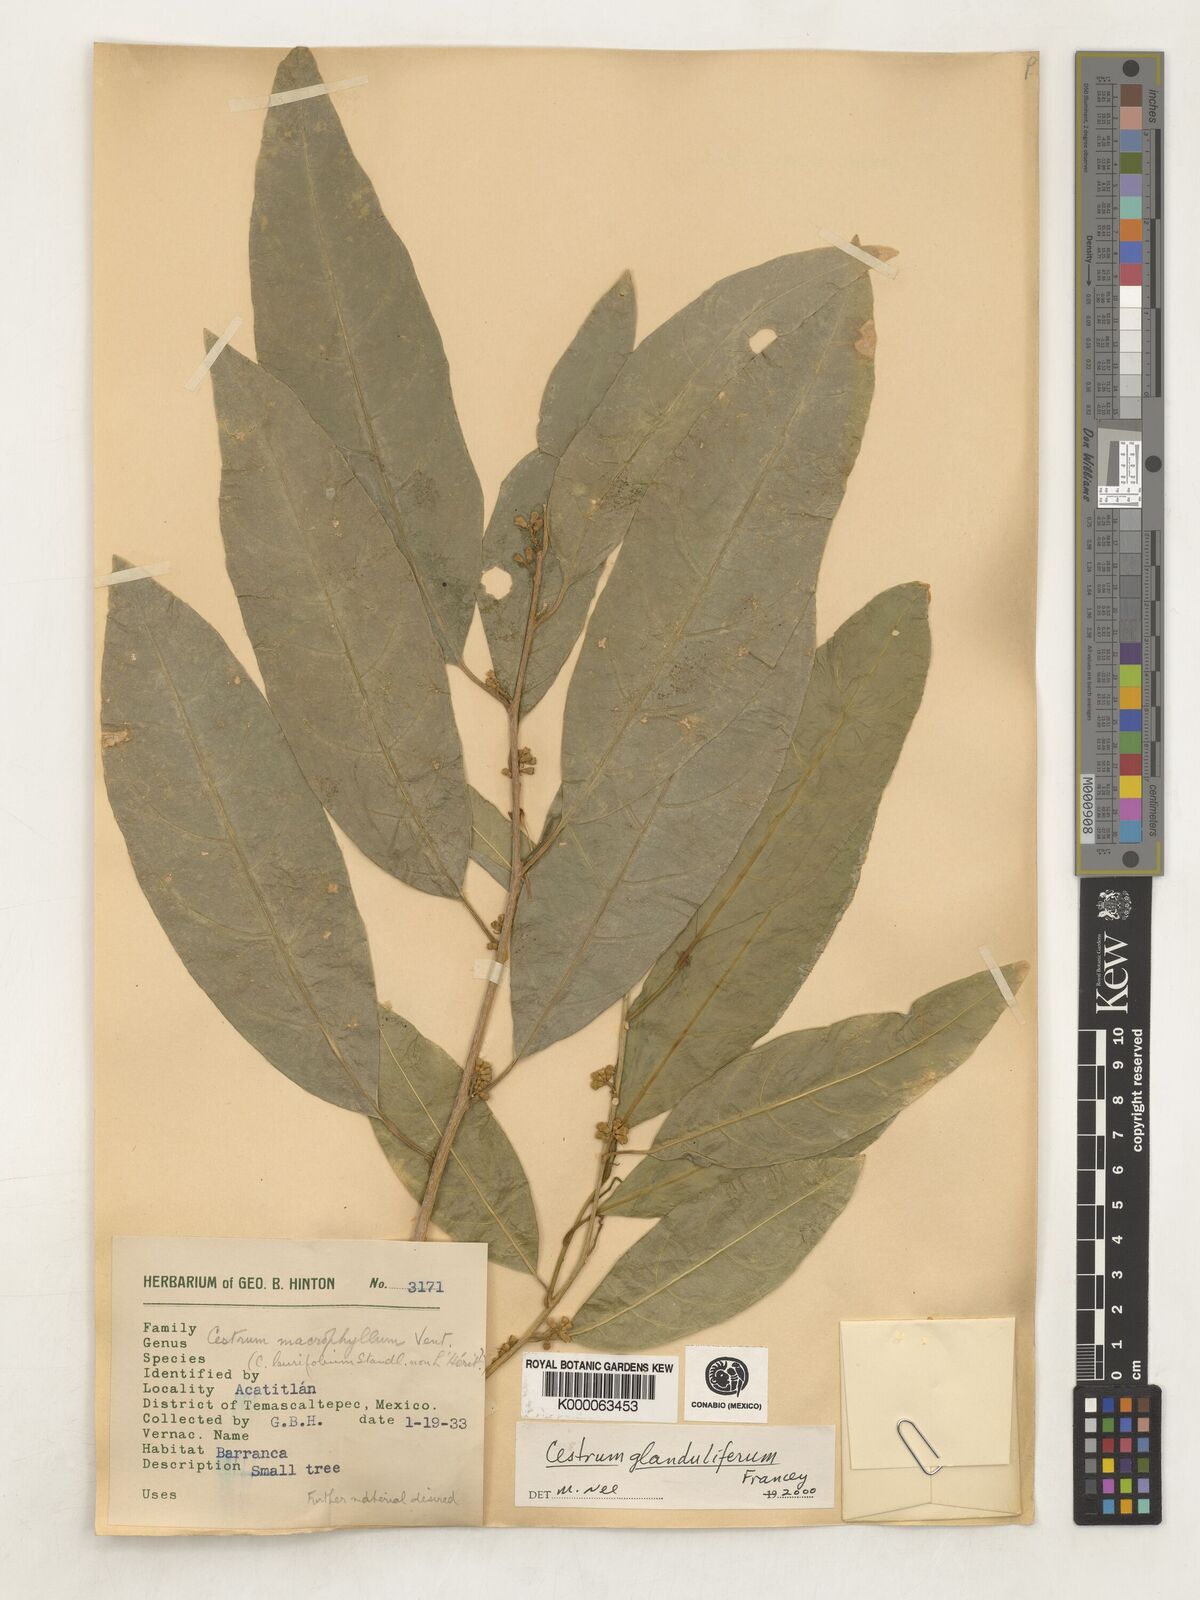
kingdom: Plantae
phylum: Tracheophyta
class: Magnoliopsida
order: Solanales
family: Solanaceae
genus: Cestrum
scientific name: Cestrum glanduliferum
